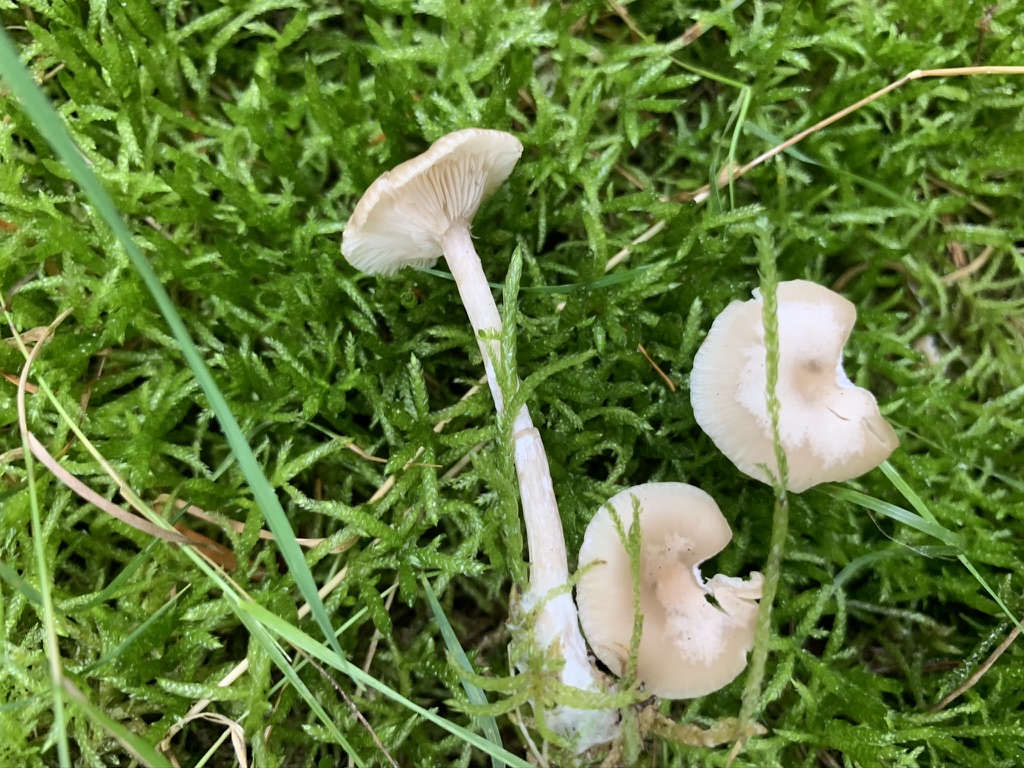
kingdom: Fungi
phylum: Basidiomycota
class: Agaricomycetes
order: Agaricales
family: Tricholomataceae
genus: Clitocybe
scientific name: Clitocybe fragrans
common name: vellugtende tragthat
